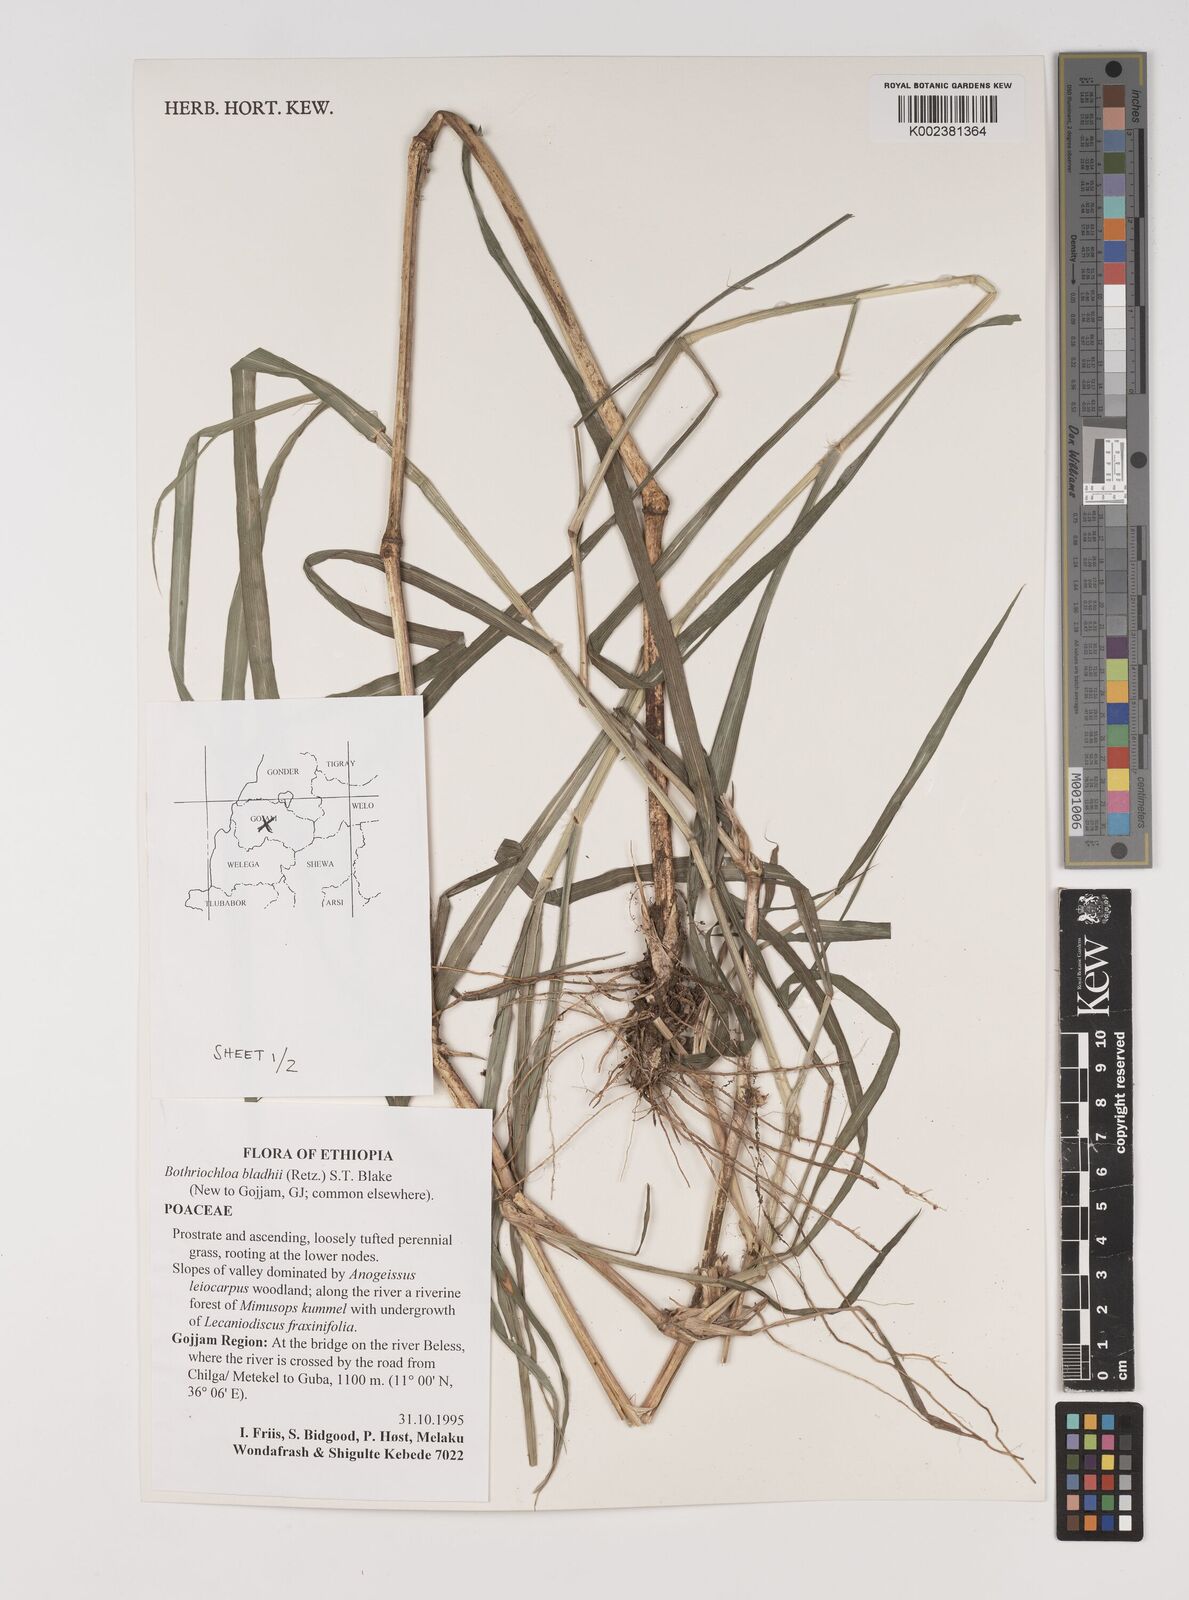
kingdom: Plantae
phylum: Tracheophyta
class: Liliopsida
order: Poales
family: Poaceae
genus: Bothriochloa
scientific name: Bothriochloa bladhii
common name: Caucasian bluestem
